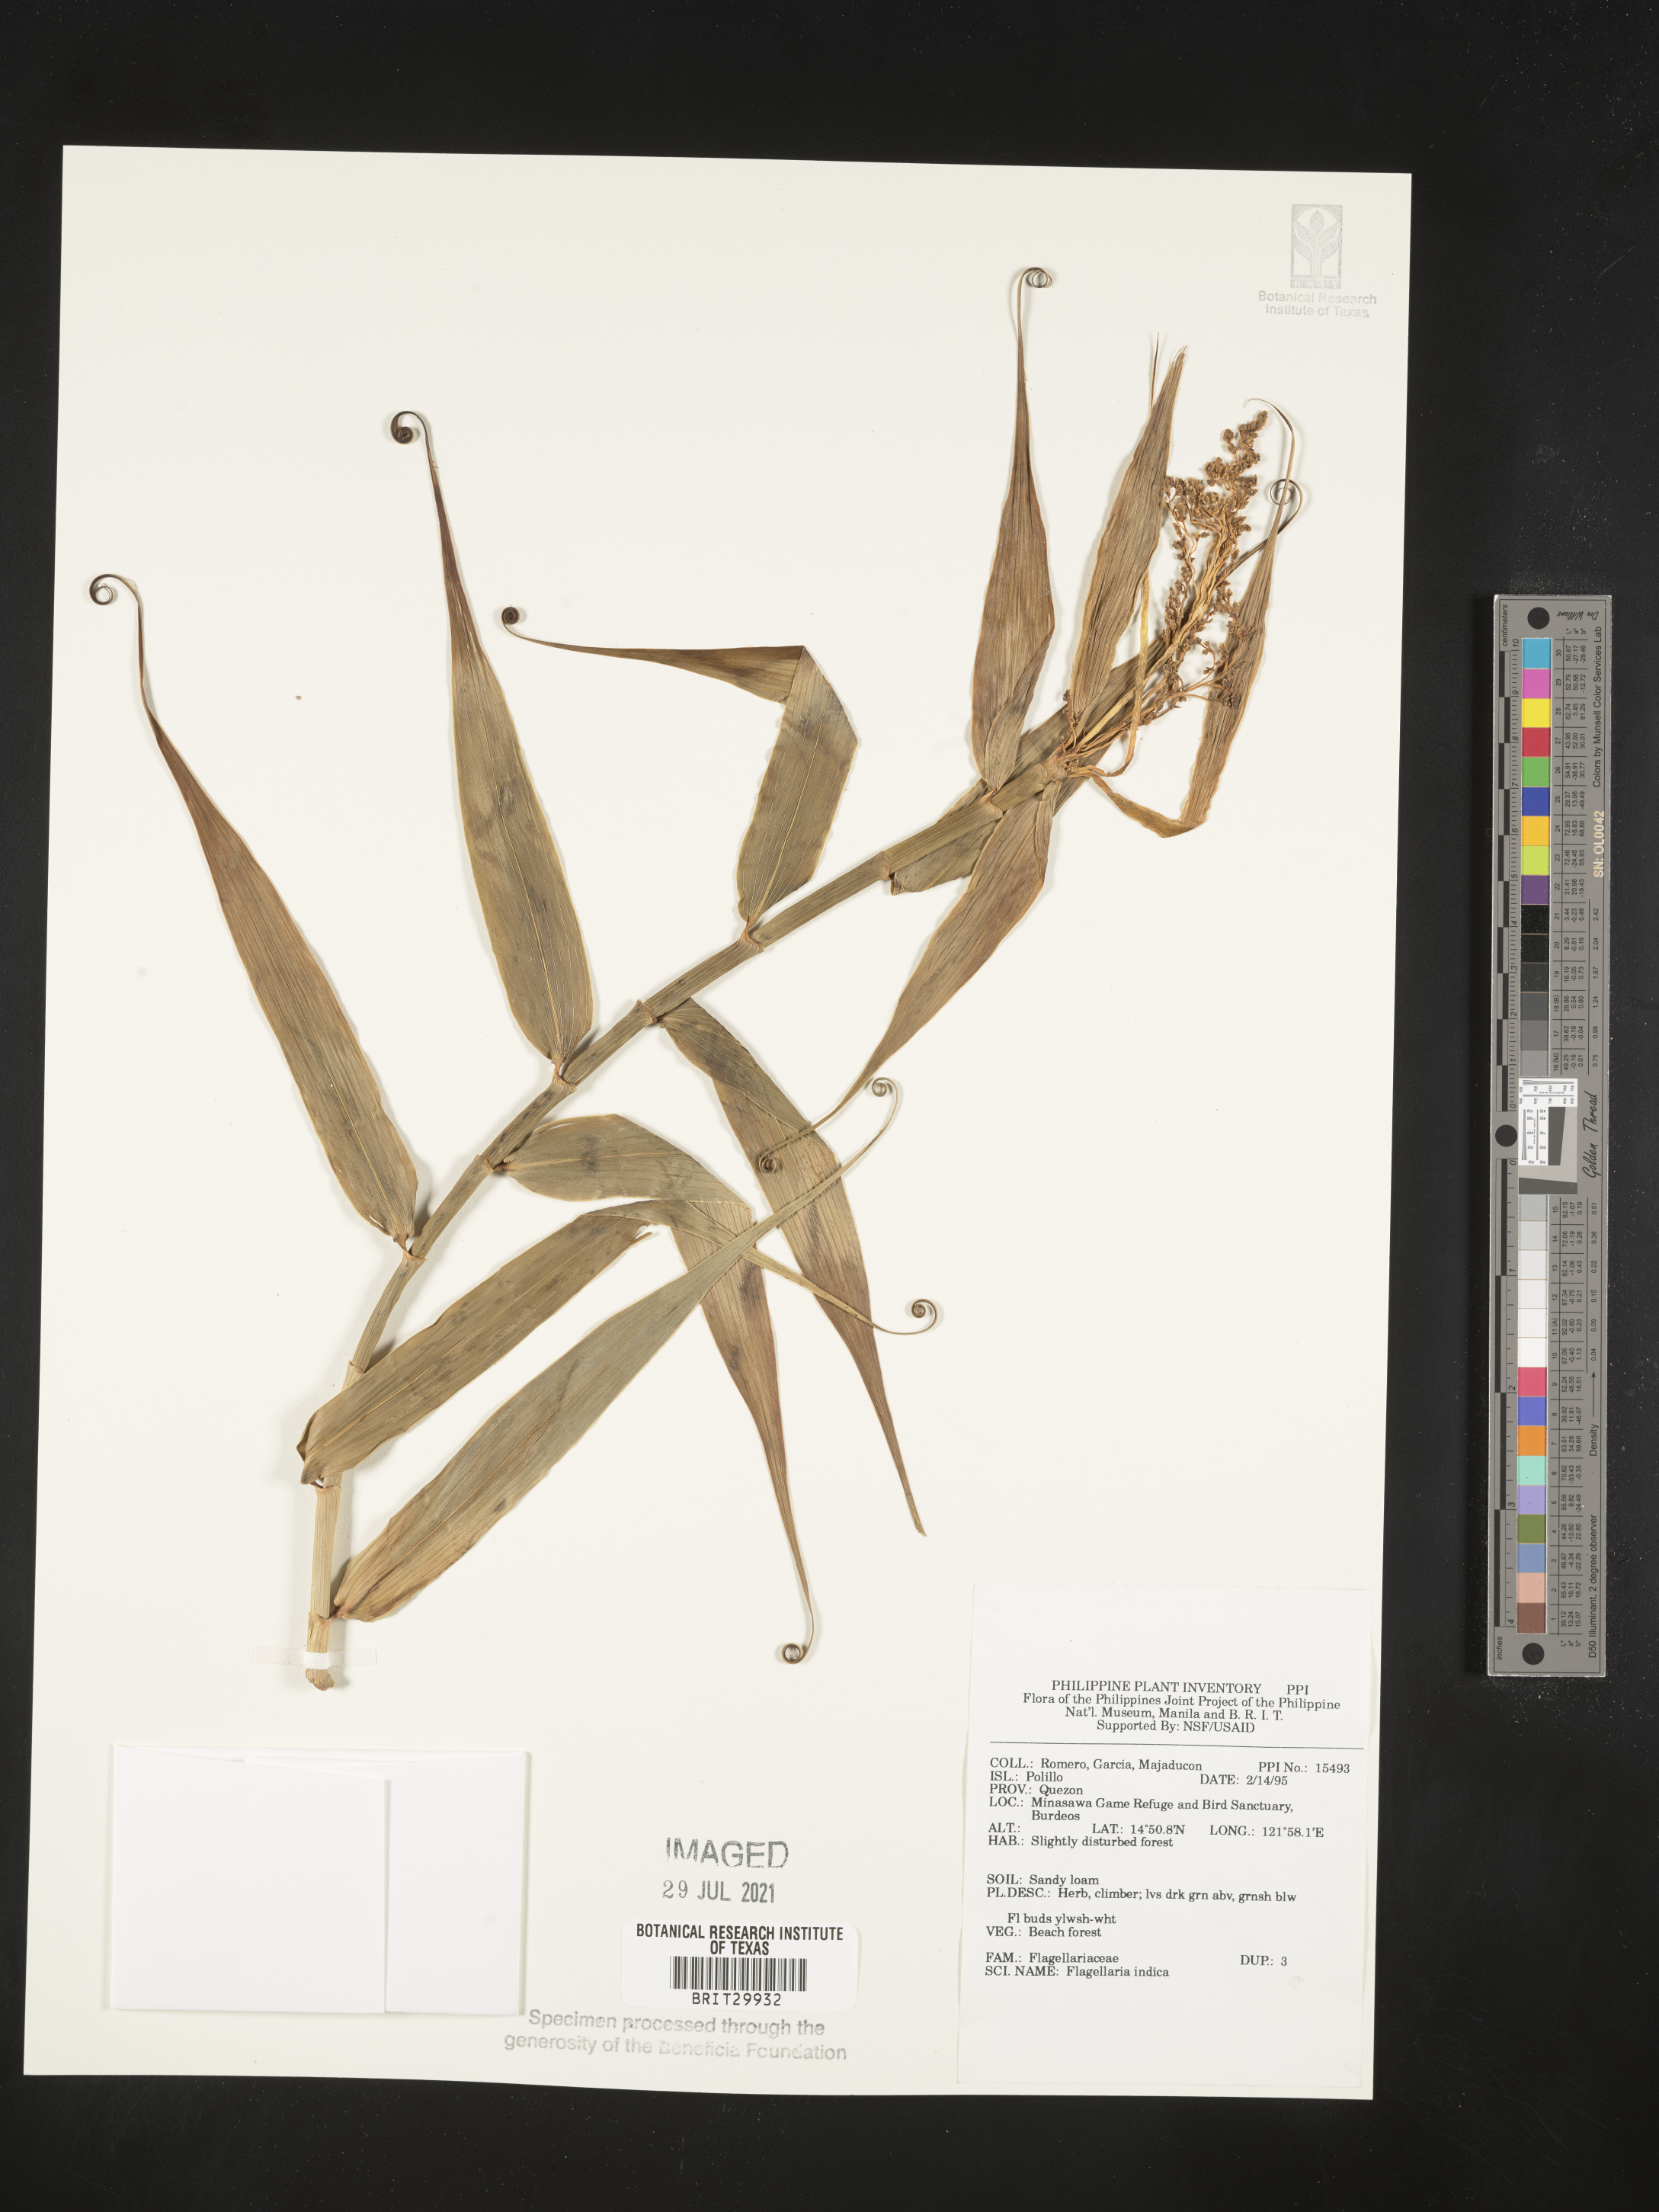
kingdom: Plantae
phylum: Tracheophyta
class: Liliopsida
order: Poales
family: Flagellariaceae
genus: Flagellaria
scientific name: Flagellaria indica
